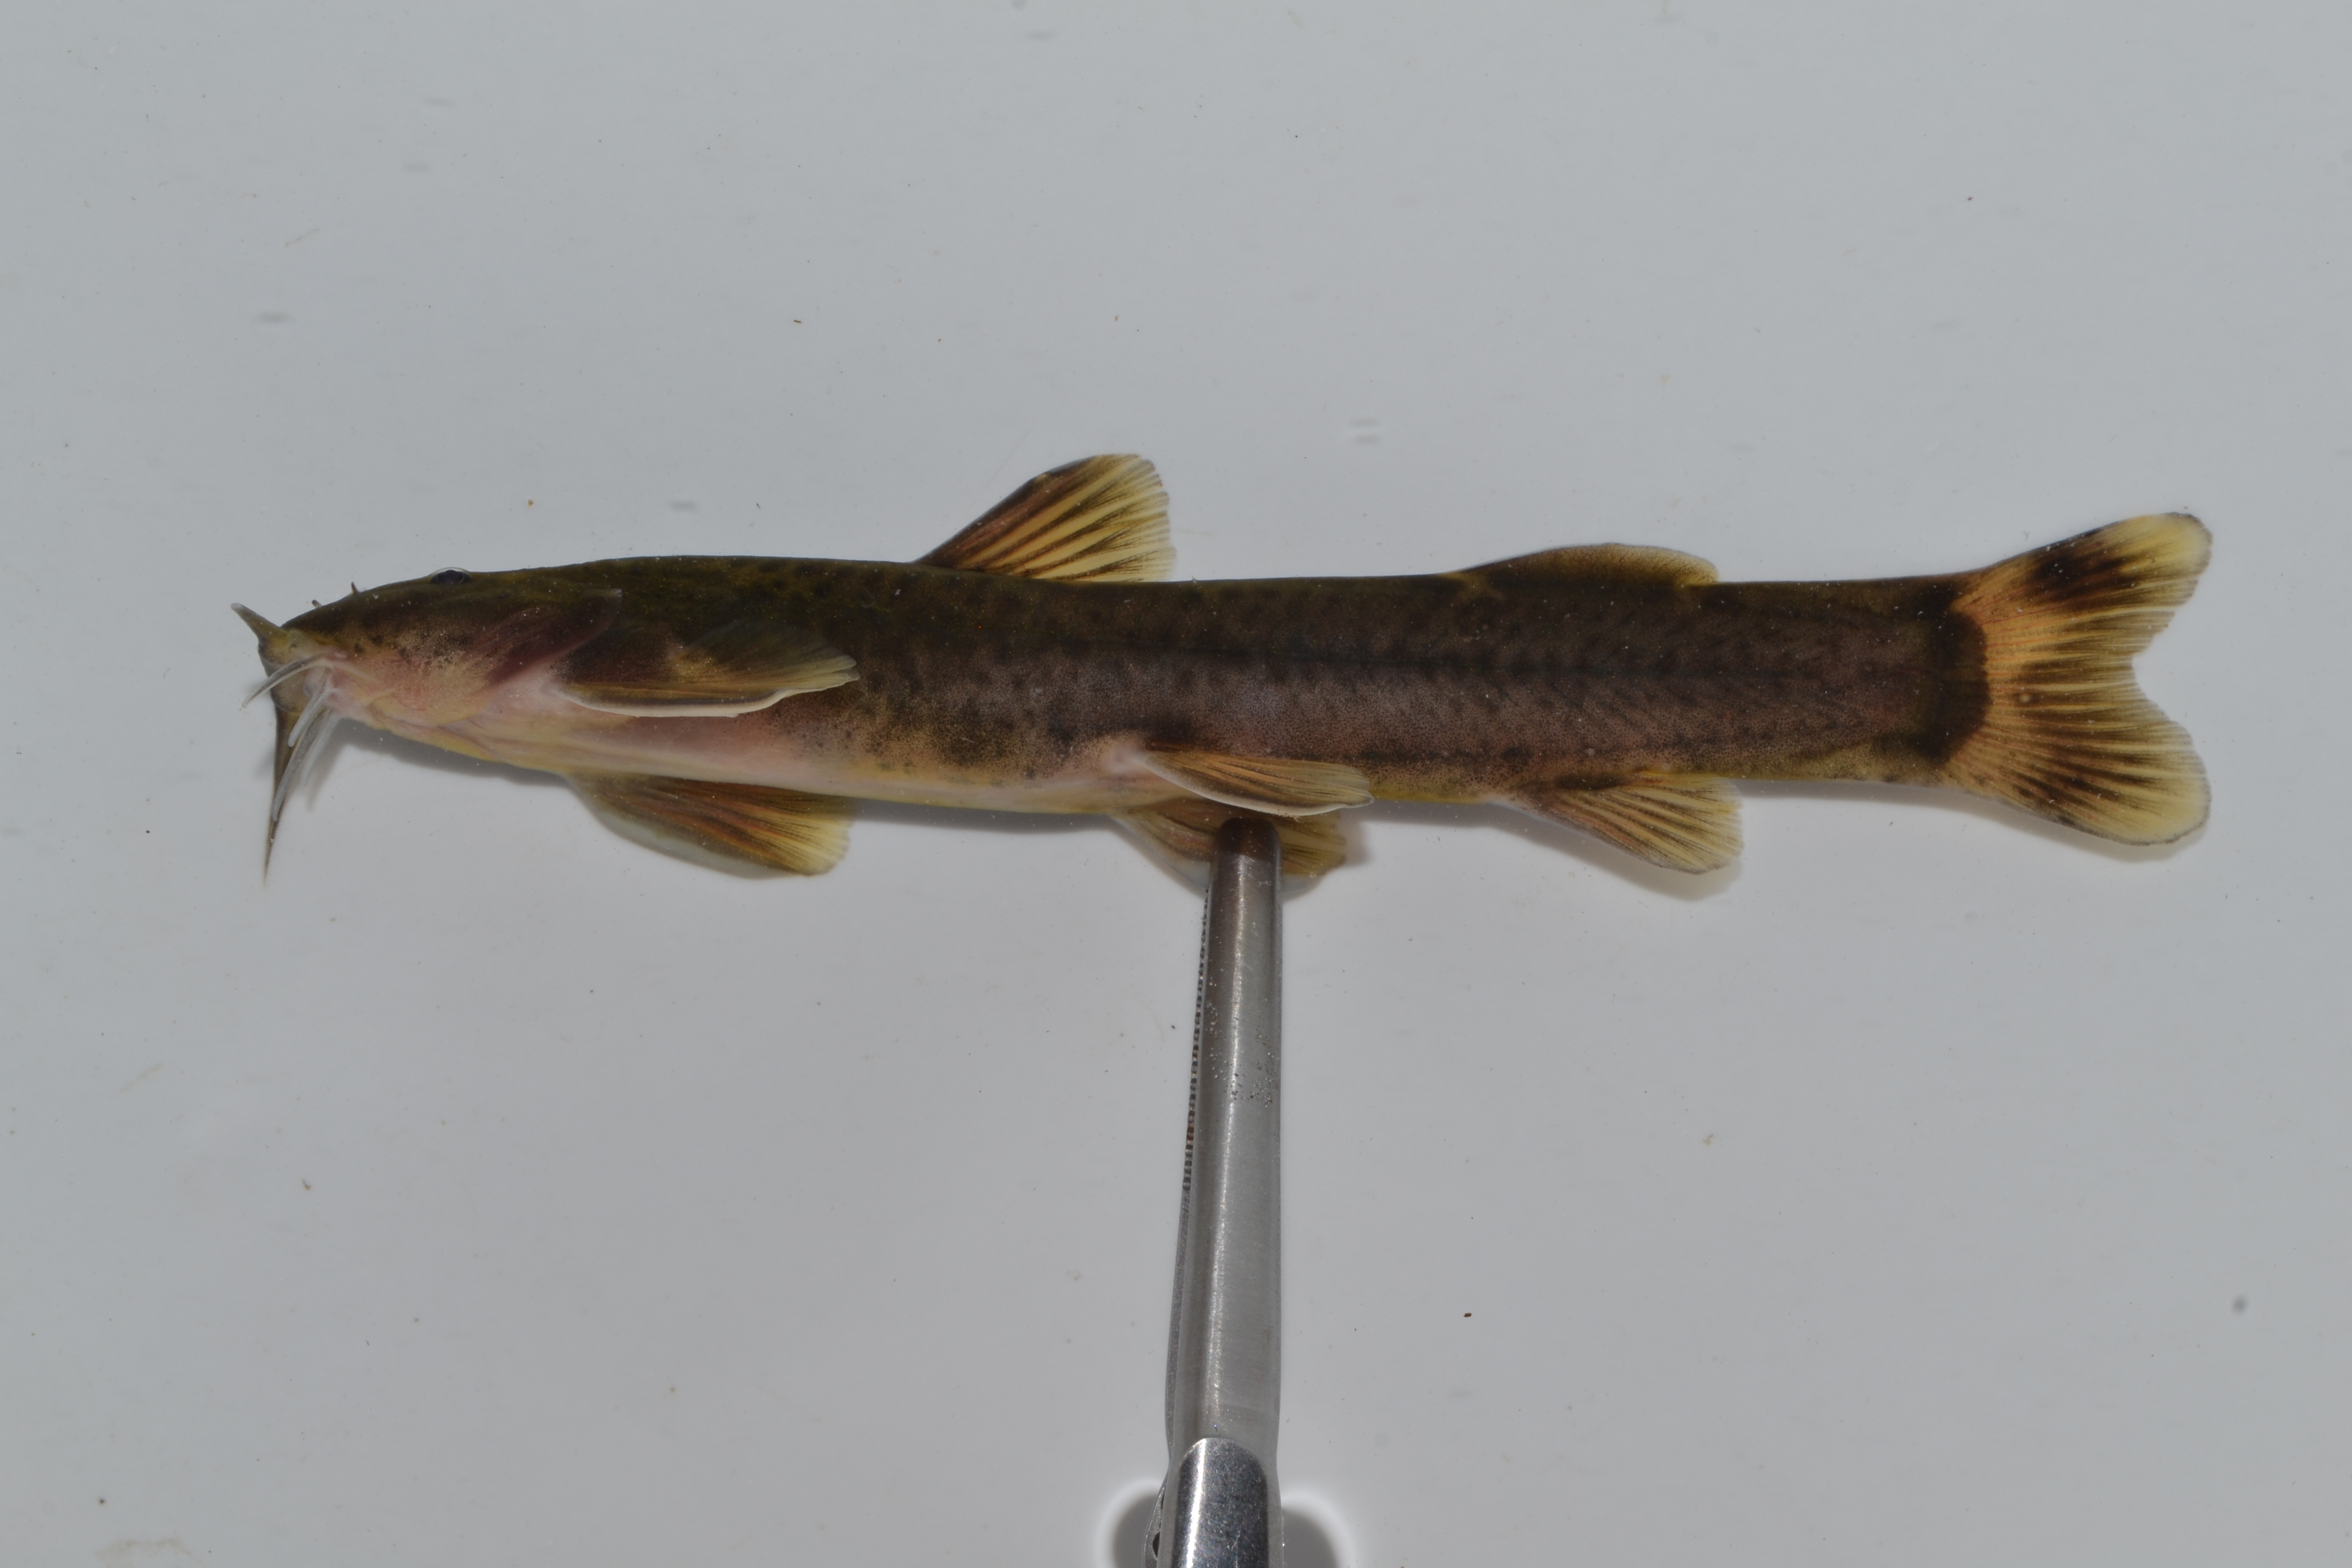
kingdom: Animalia
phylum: Chordata
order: Siluriformes
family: Amphiliidae
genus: Amphilius
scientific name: Amphilius zuluorum
